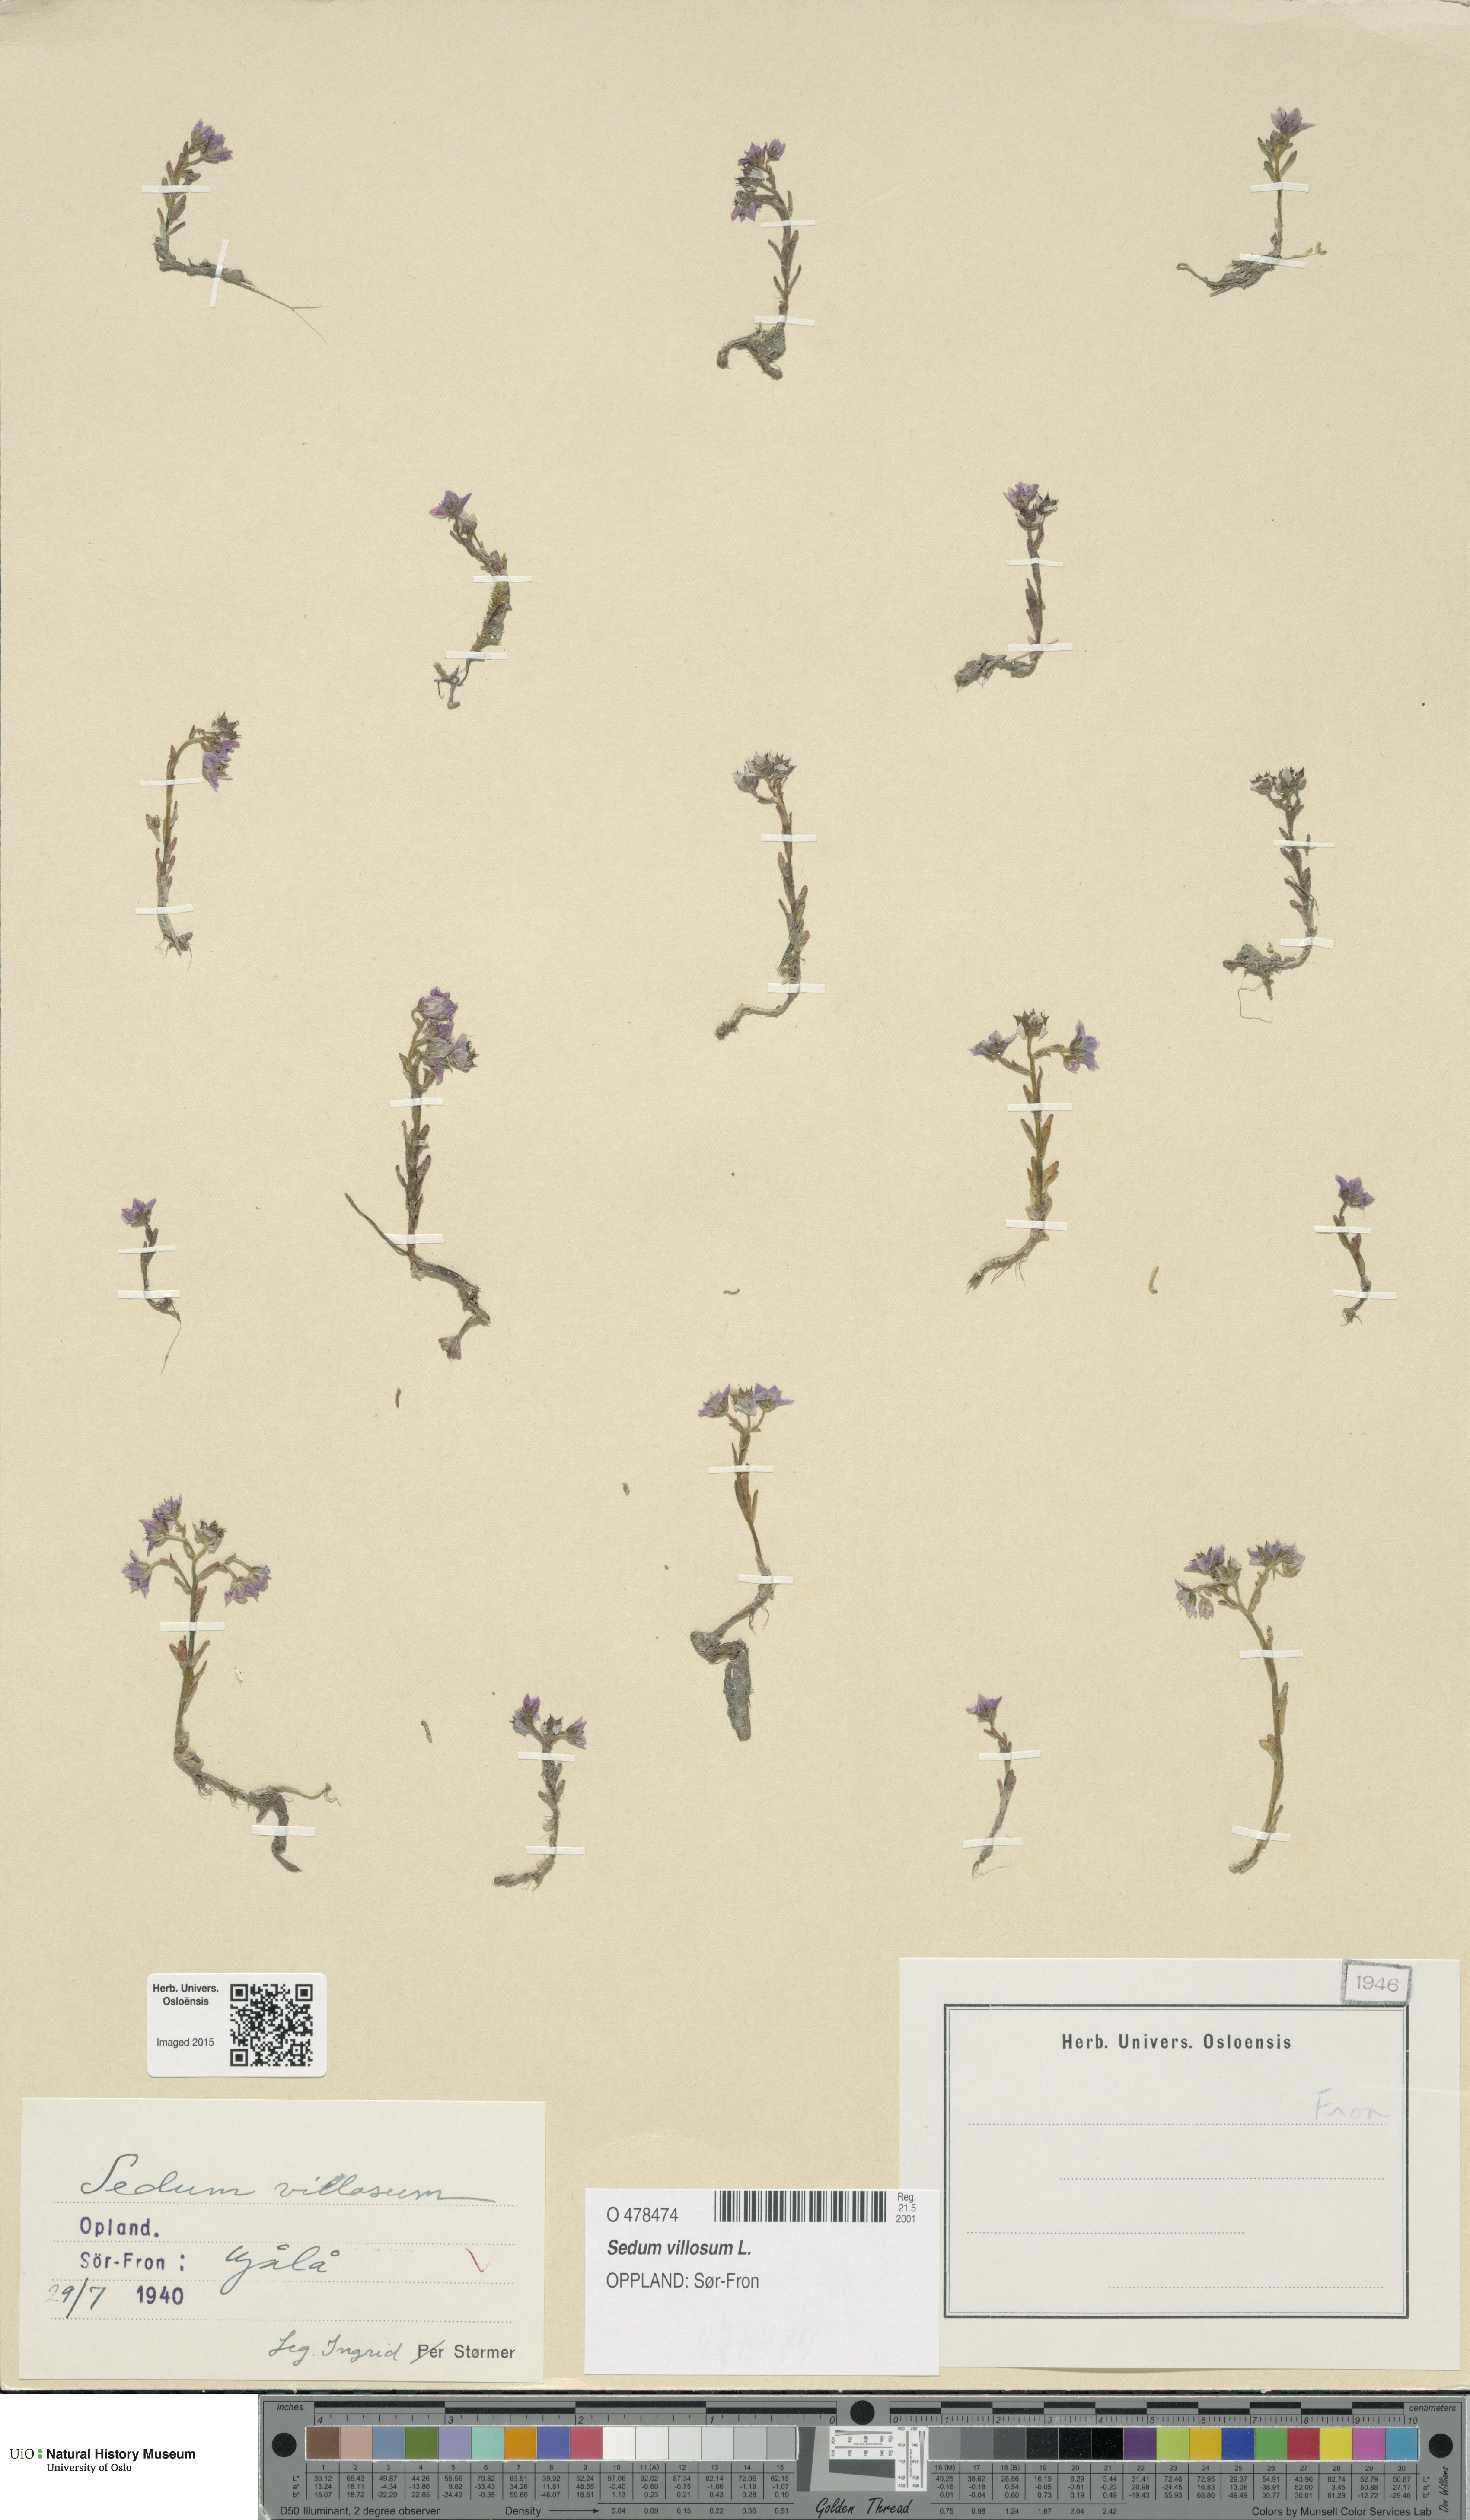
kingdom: Plantae
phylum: Tracheophyta
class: Magnoliopsida
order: Saxifragales
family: Crassulaceae
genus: Sedum
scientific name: Sedum villosum
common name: Hairy stonecrop
